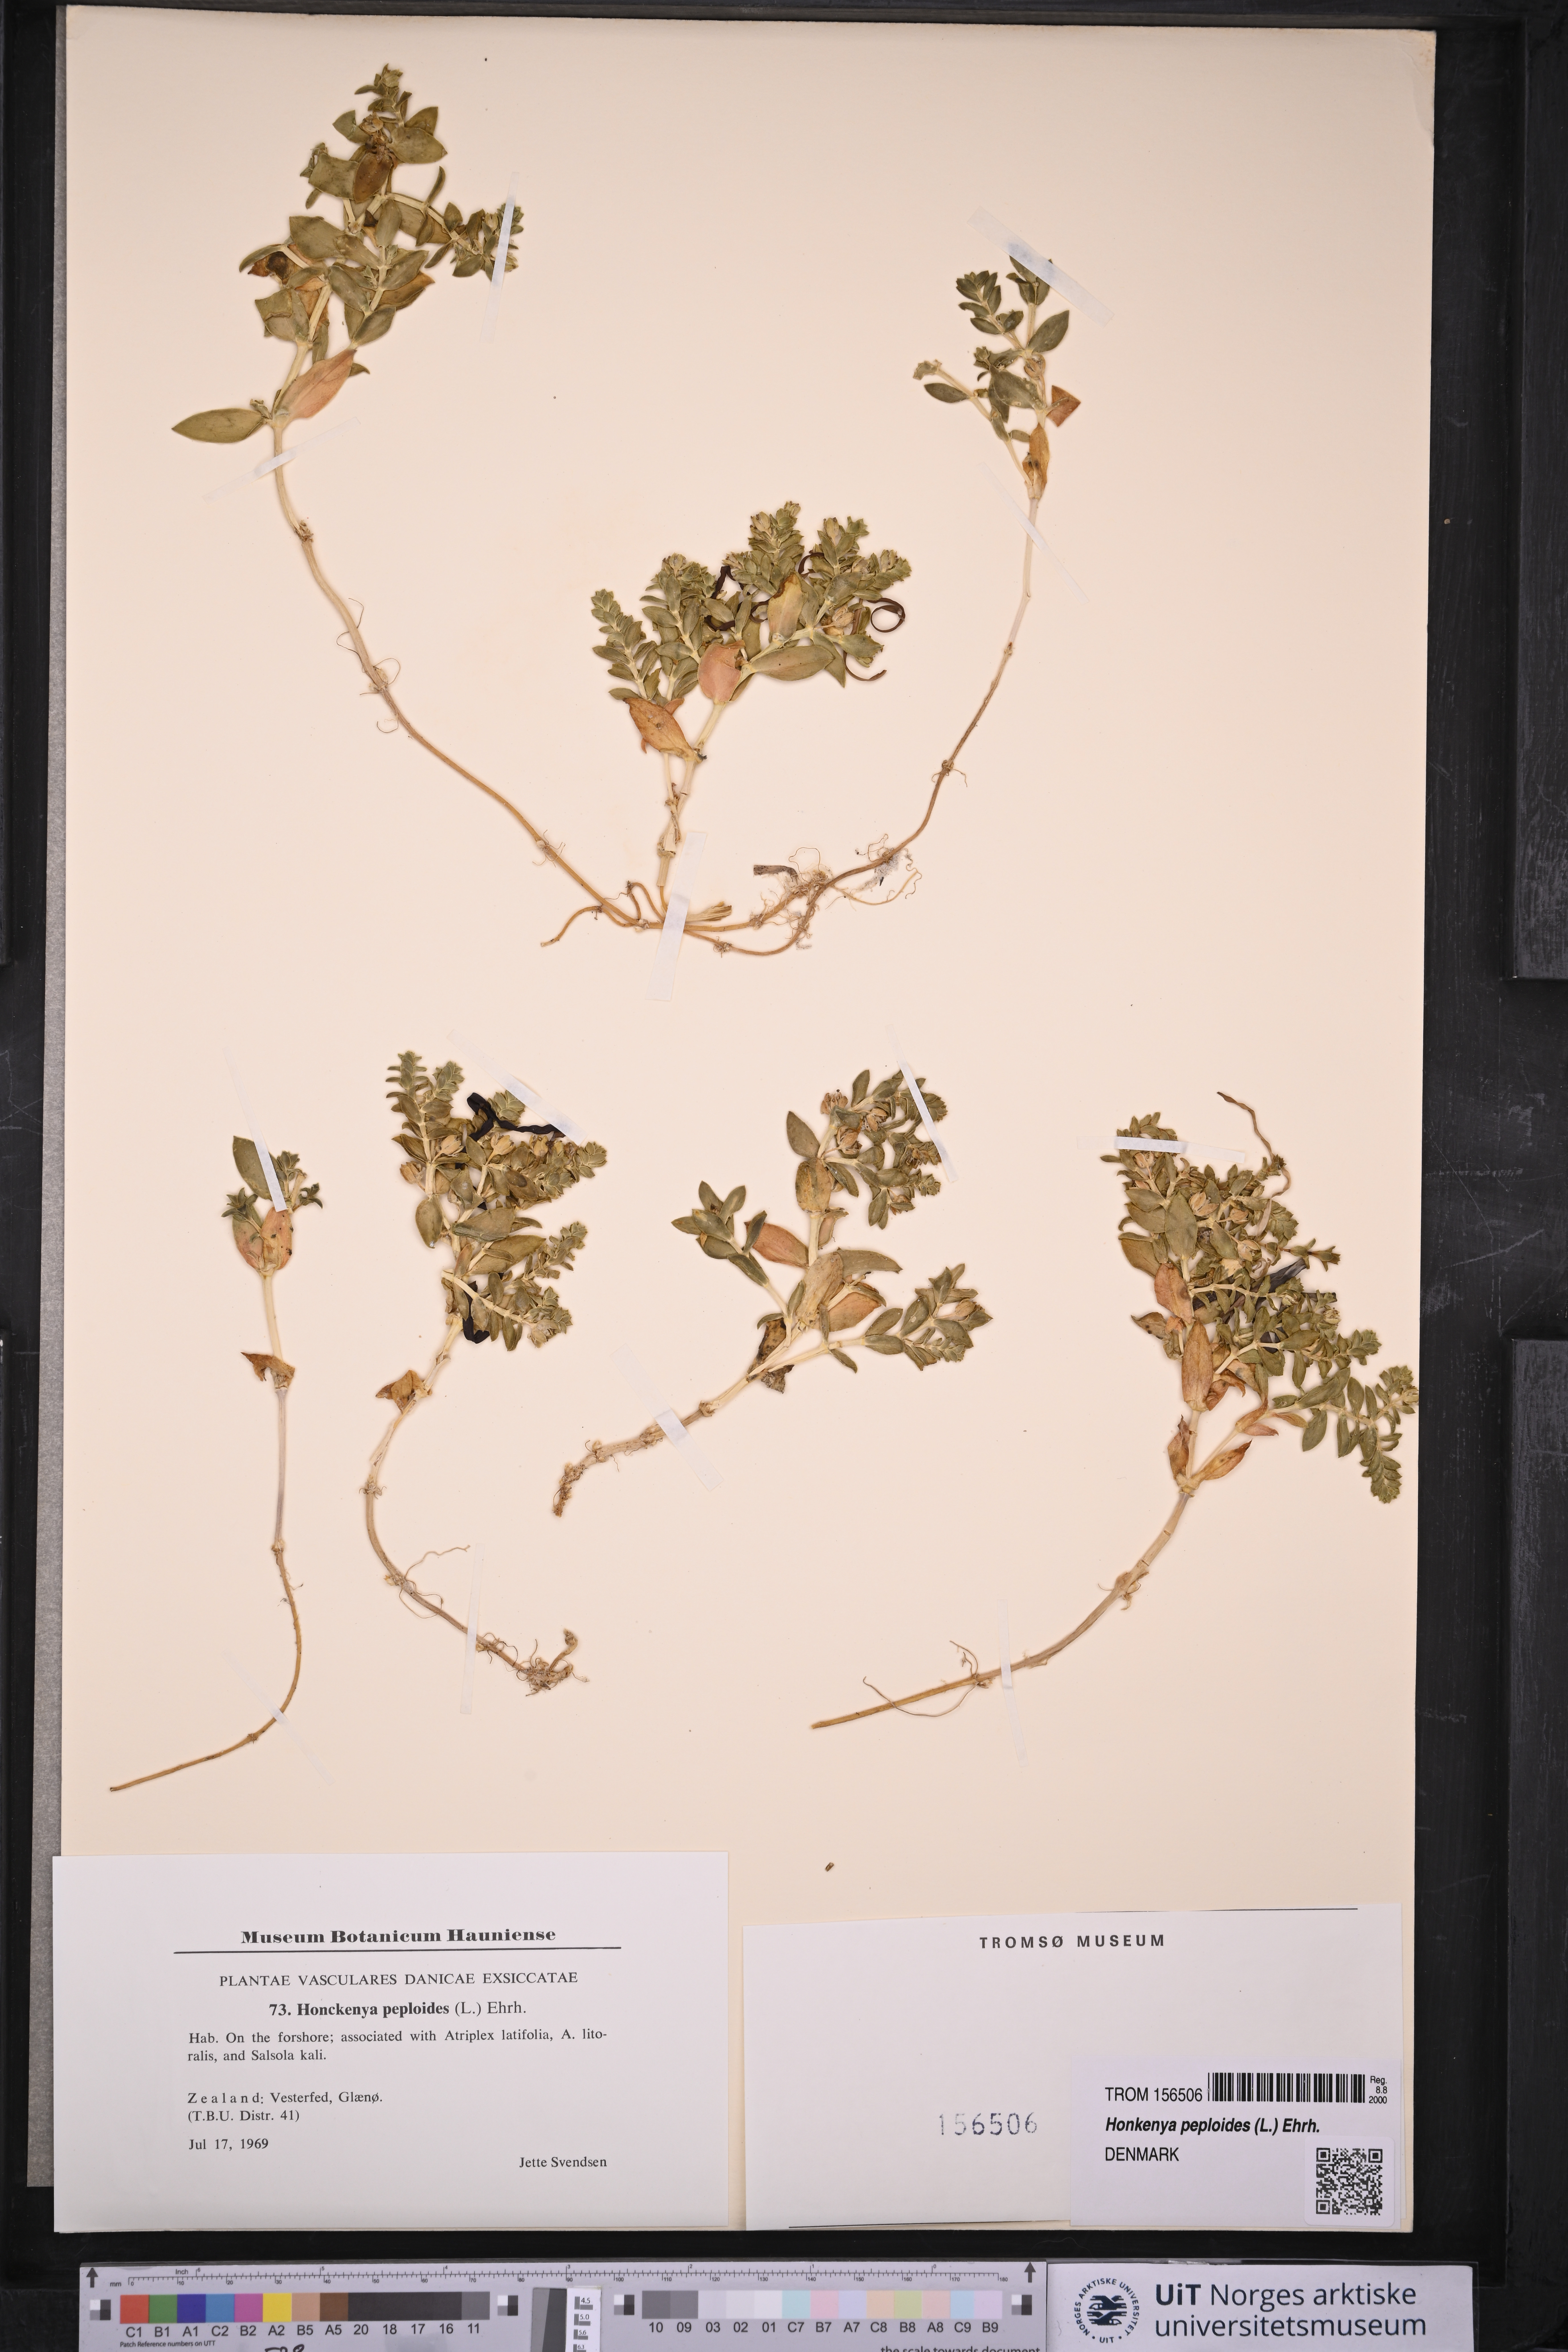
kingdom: Plantae
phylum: Tracheophyta
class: Magnoliopsida
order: Caryophyllales
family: Caryophyllaceae
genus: Honckenya
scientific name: Honckenya peploides
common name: Sea sandwort
